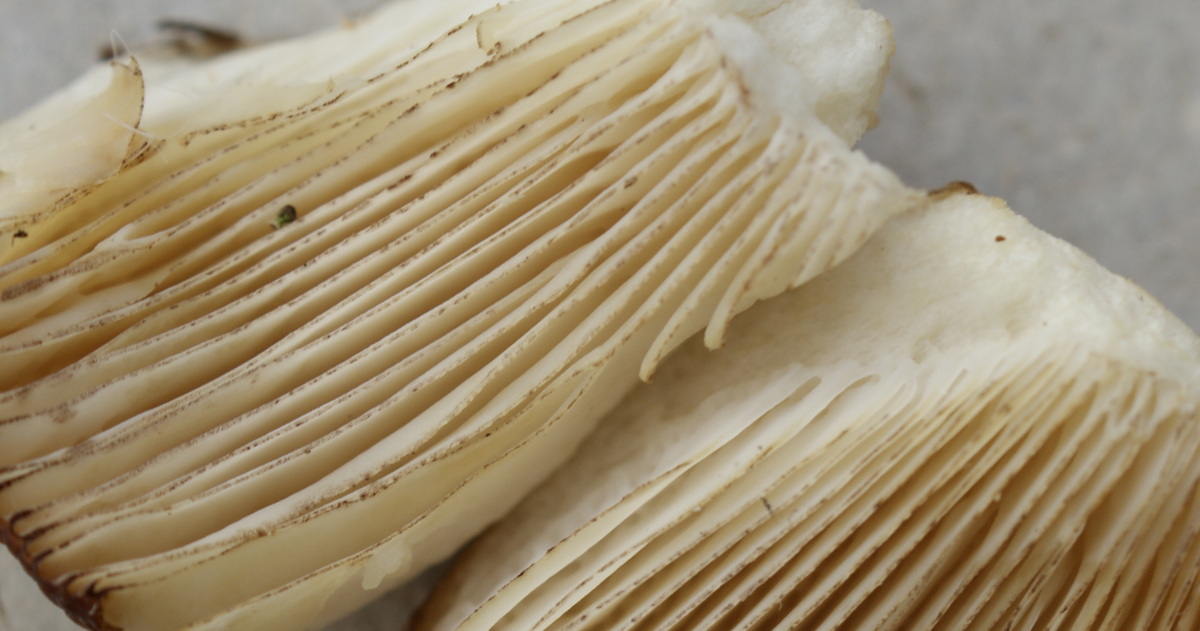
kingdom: Fungi
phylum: Basidiomycota
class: Agaricomycetes
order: Russulales
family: Russulaceae
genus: Russula
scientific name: Russula illota
